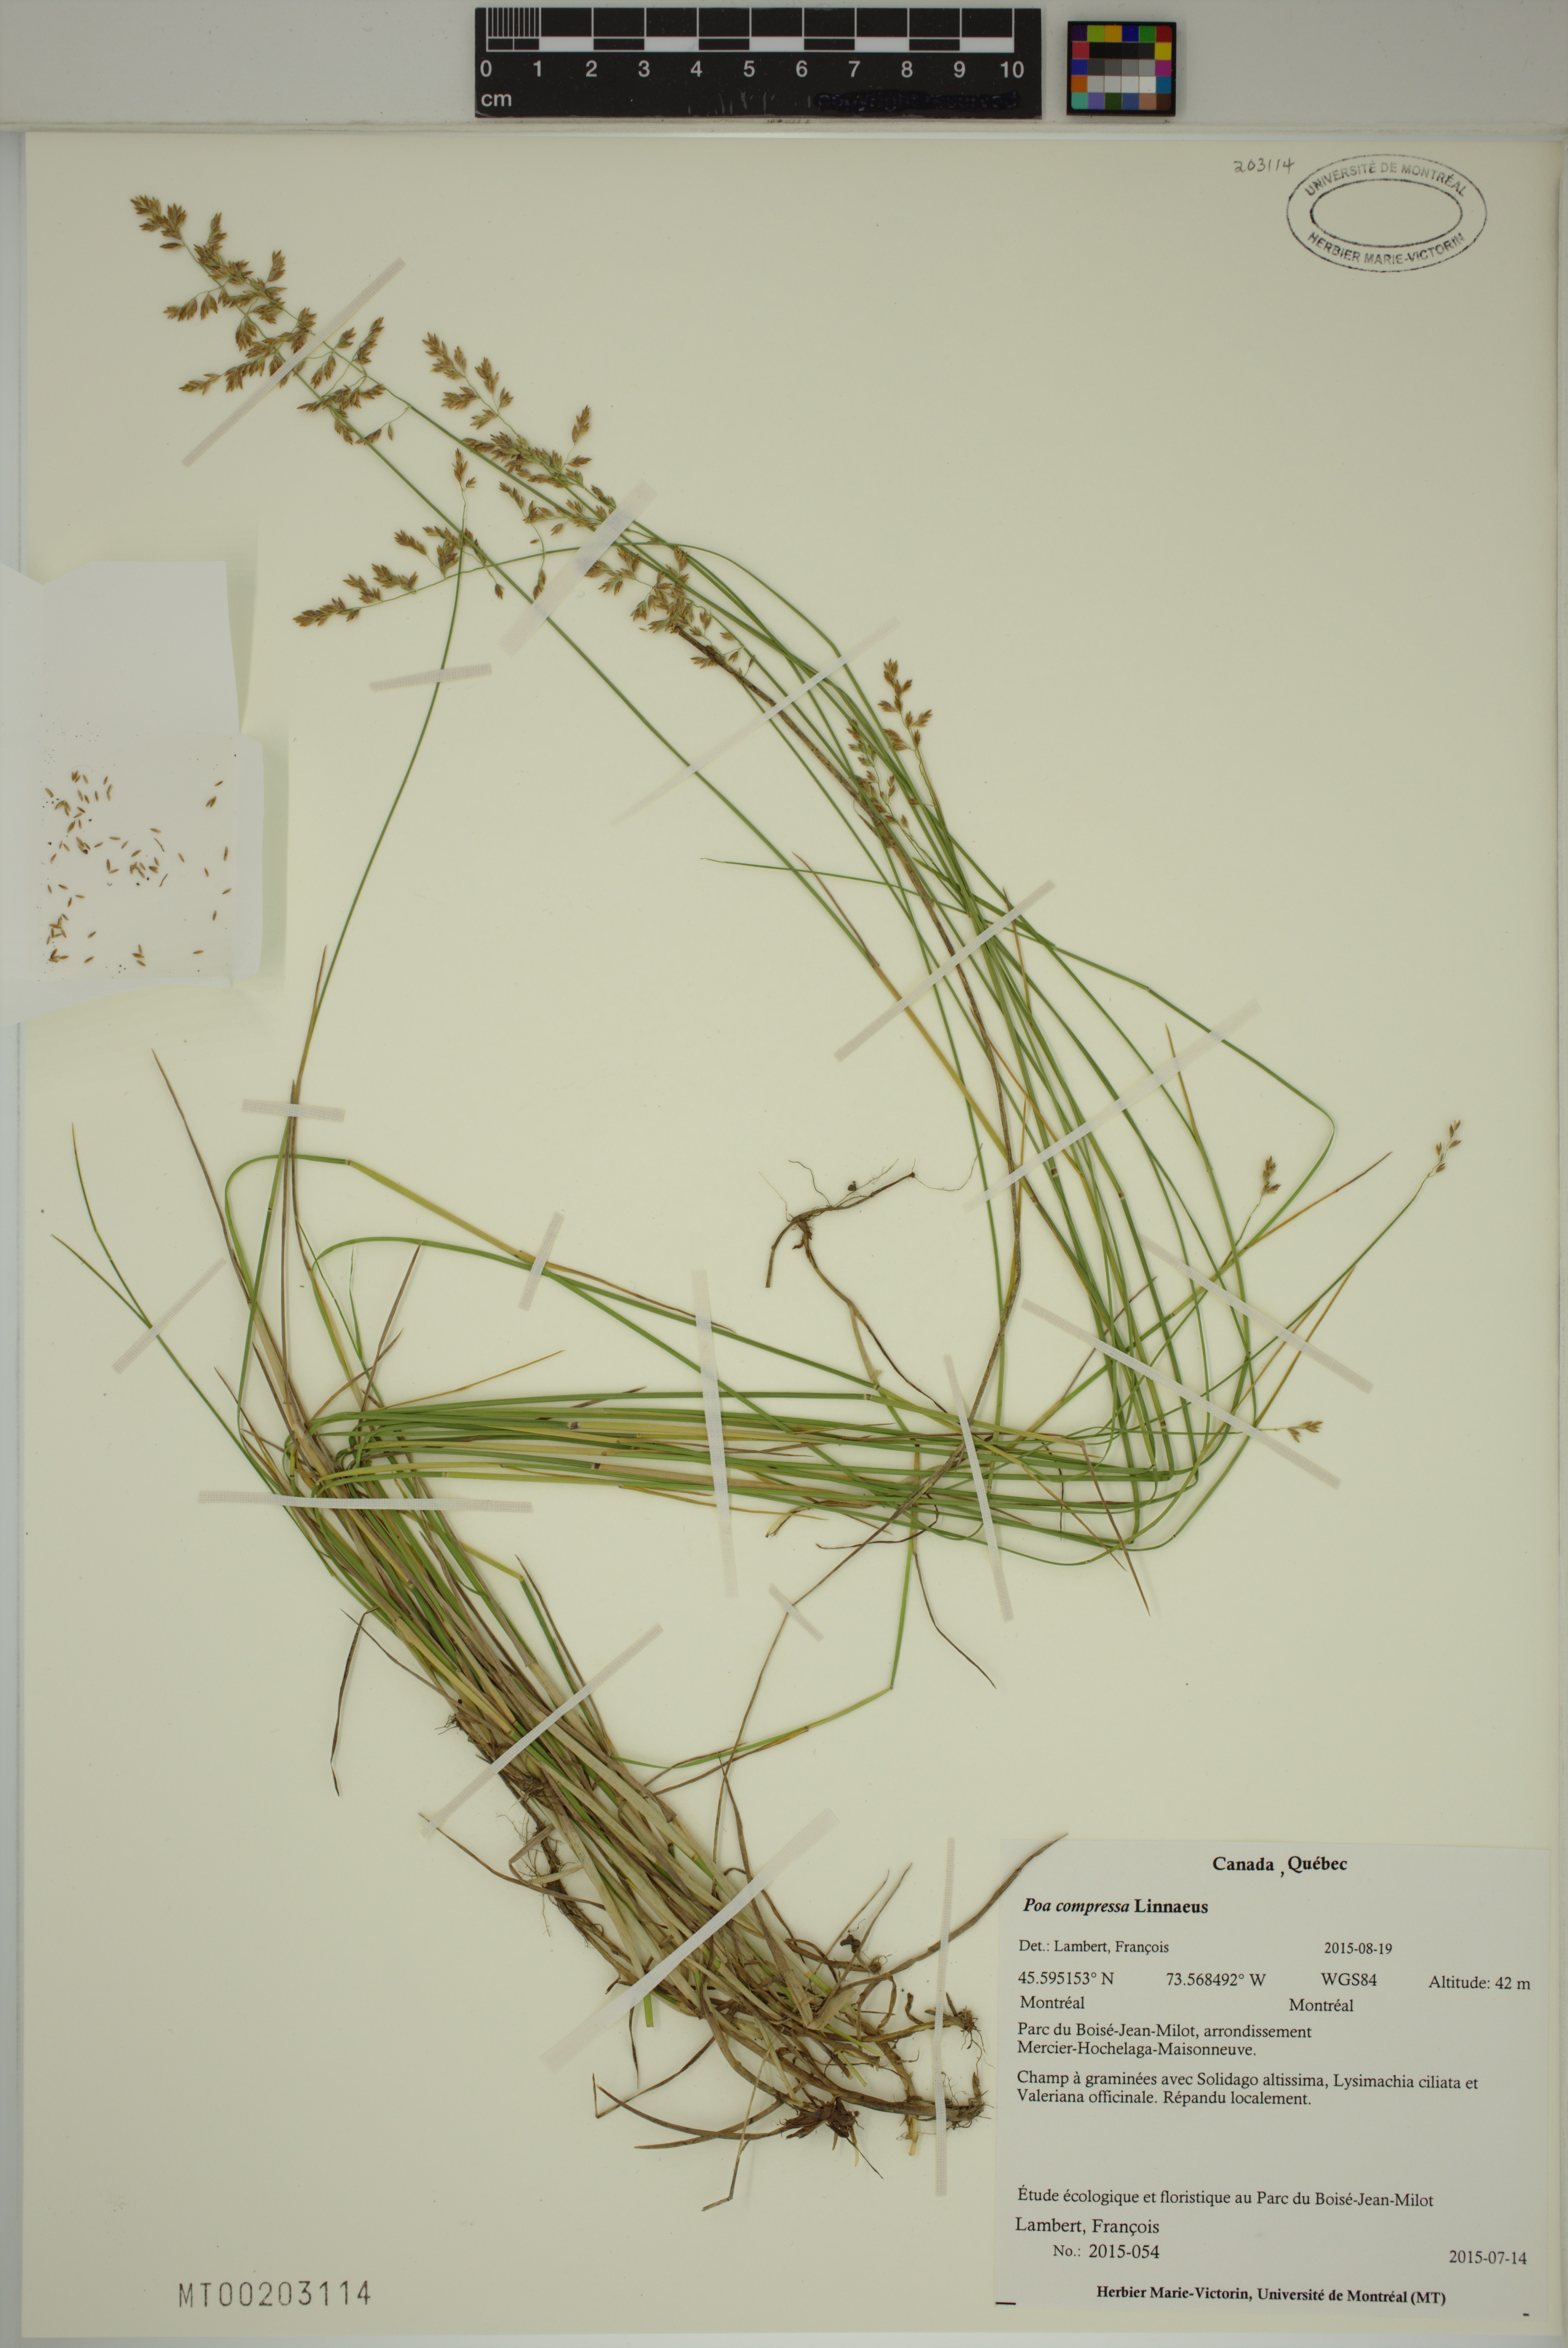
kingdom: Plantae
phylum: Tracheophyta
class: Liliopsida
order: Poales
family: Poaceae
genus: Poa
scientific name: Poa compressa
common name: Canada bluegrass
